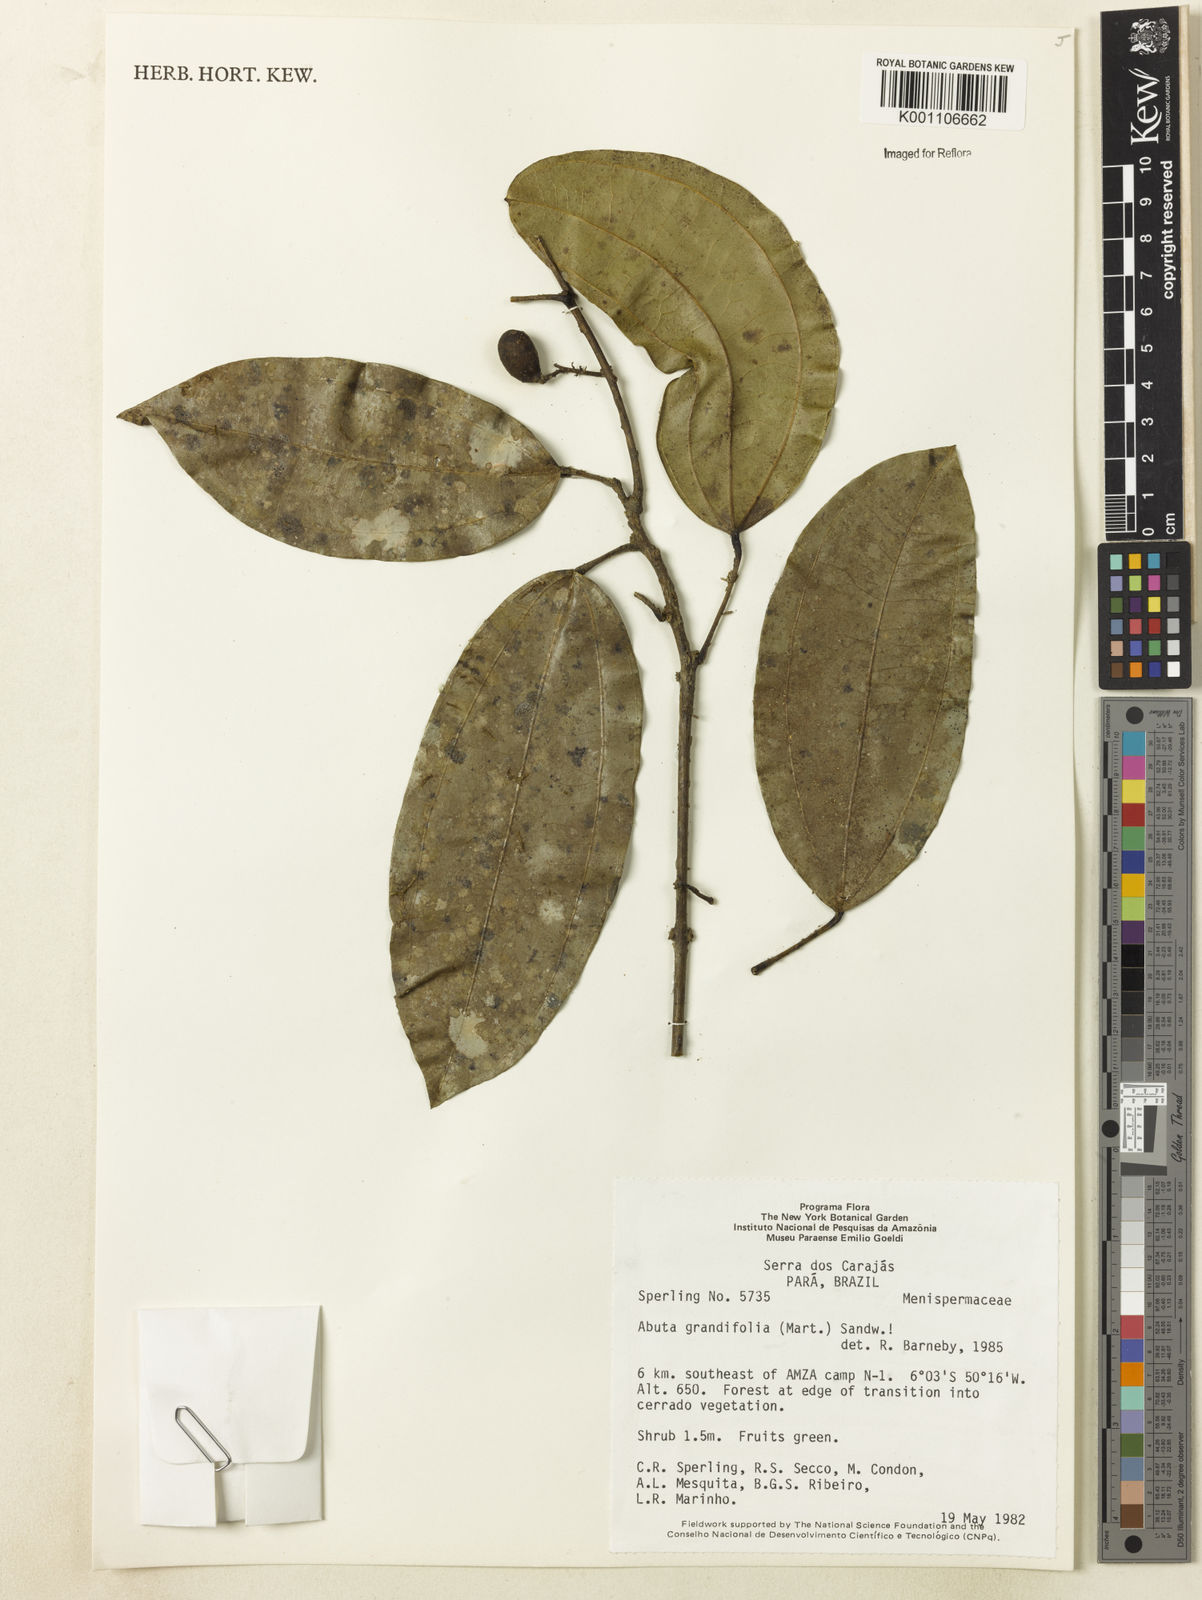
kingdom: Plantae
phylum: Tracheophyta
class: Magnoliopsida
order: Ranunculales
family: Menispermaceae
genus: Abuta
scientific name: Abuta grandifolia
